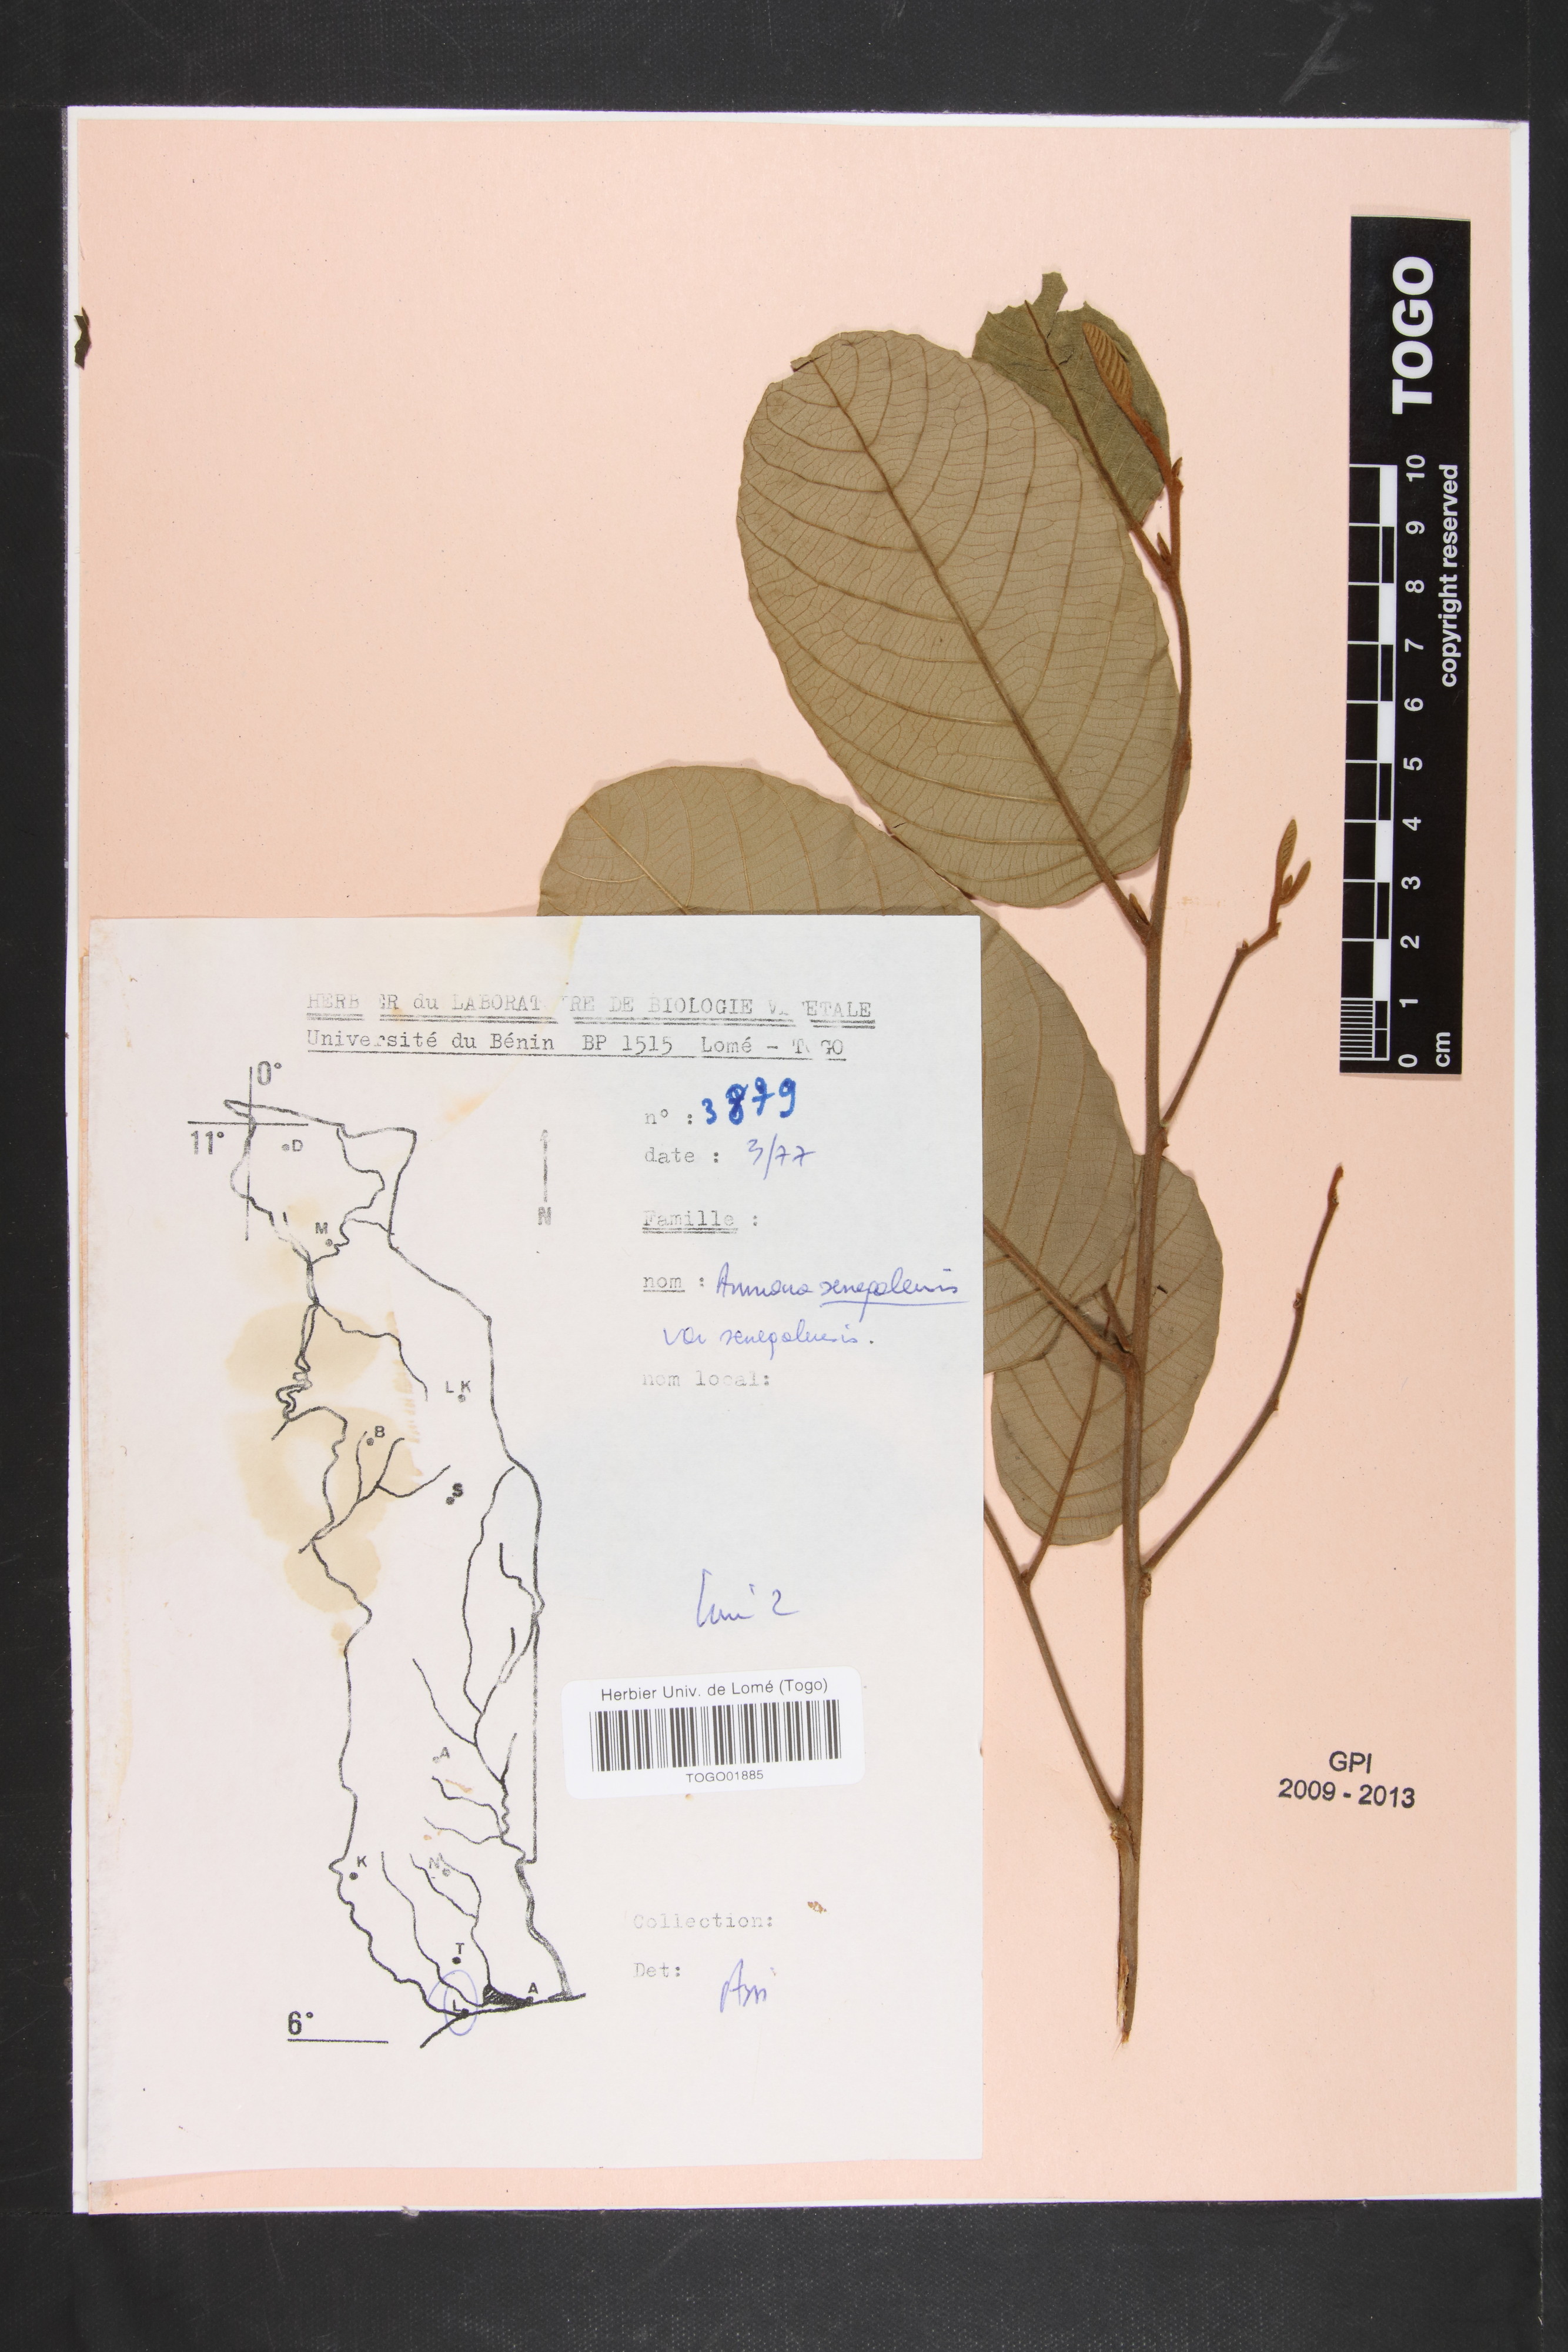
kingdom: Plantae
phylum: Tracheophyta
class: Magnoliopsida
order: Magnoliales
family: Annonaceae
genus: Annona
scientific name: Annona senegalensis
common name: Wild custard-apple
